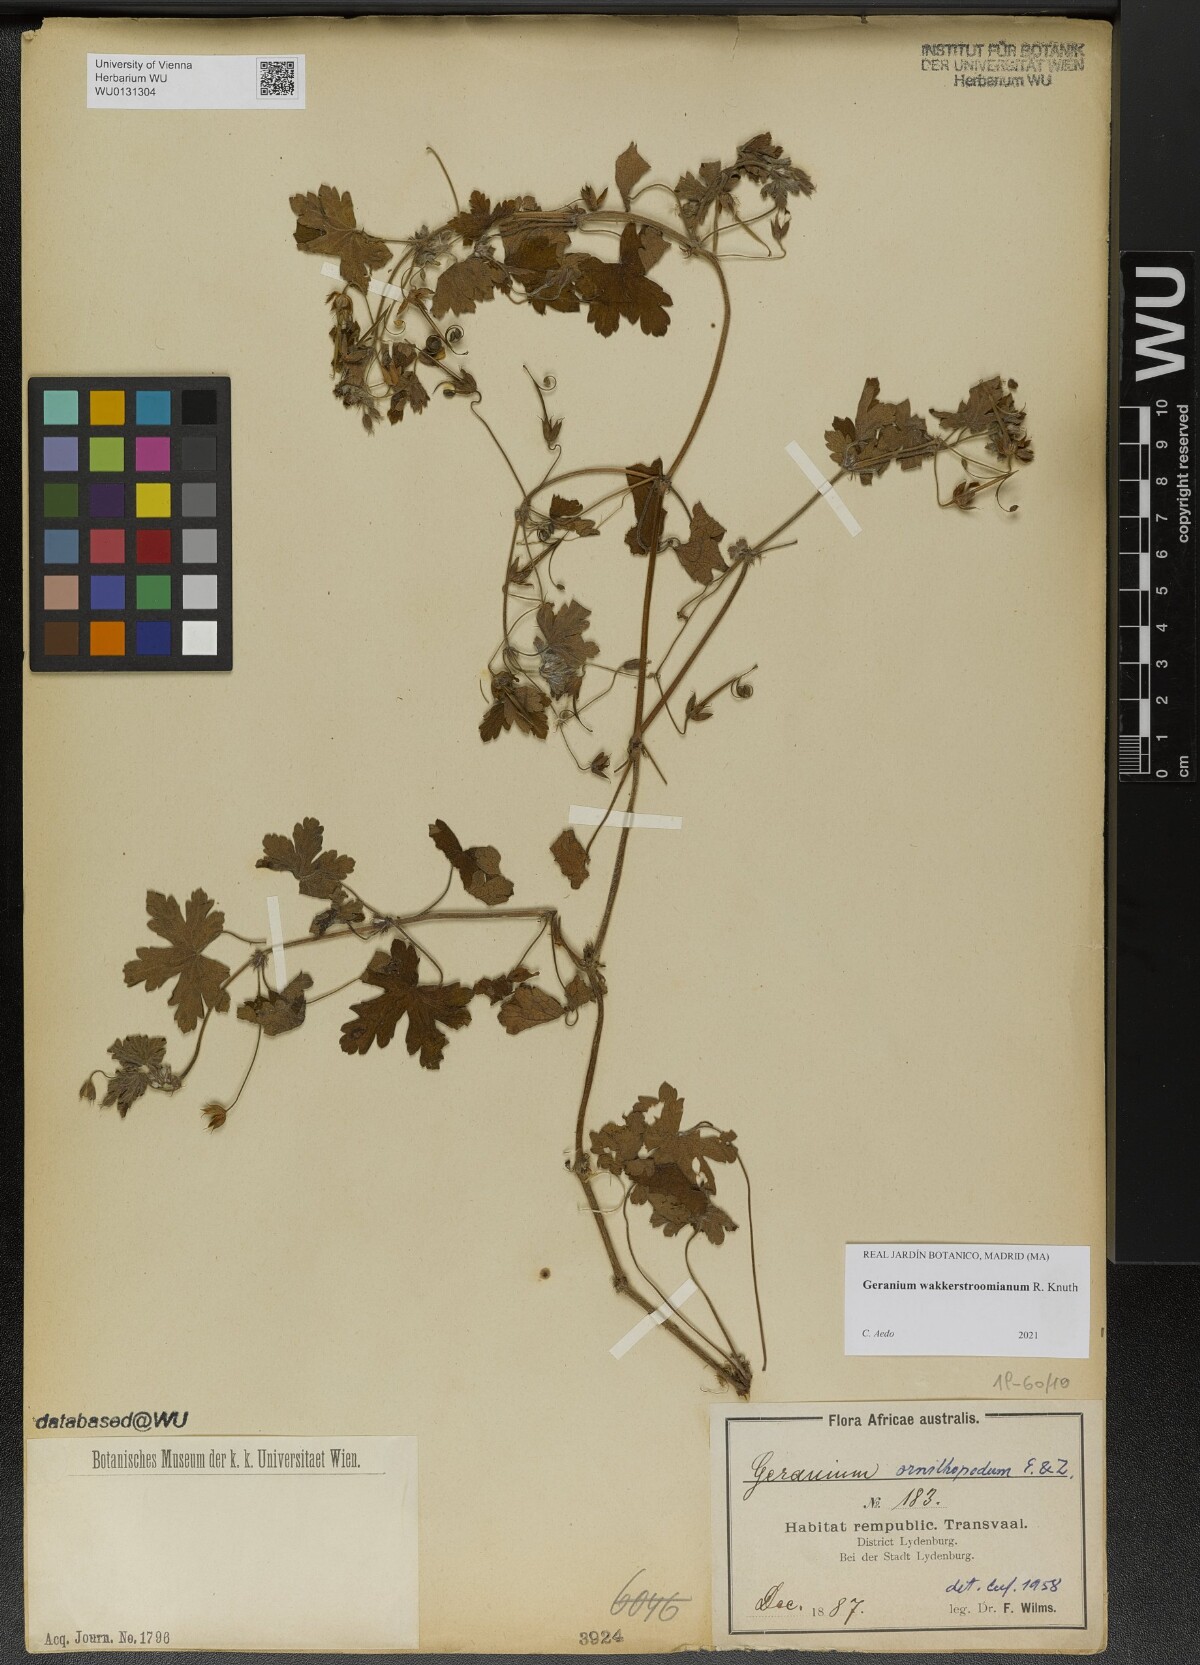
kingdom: Plantae
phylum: Tracheophyta
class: Magnoliopsida
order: Geraniales
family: Geraniaceae
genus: Geranium
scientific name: Geranium wakkerstroomianum
